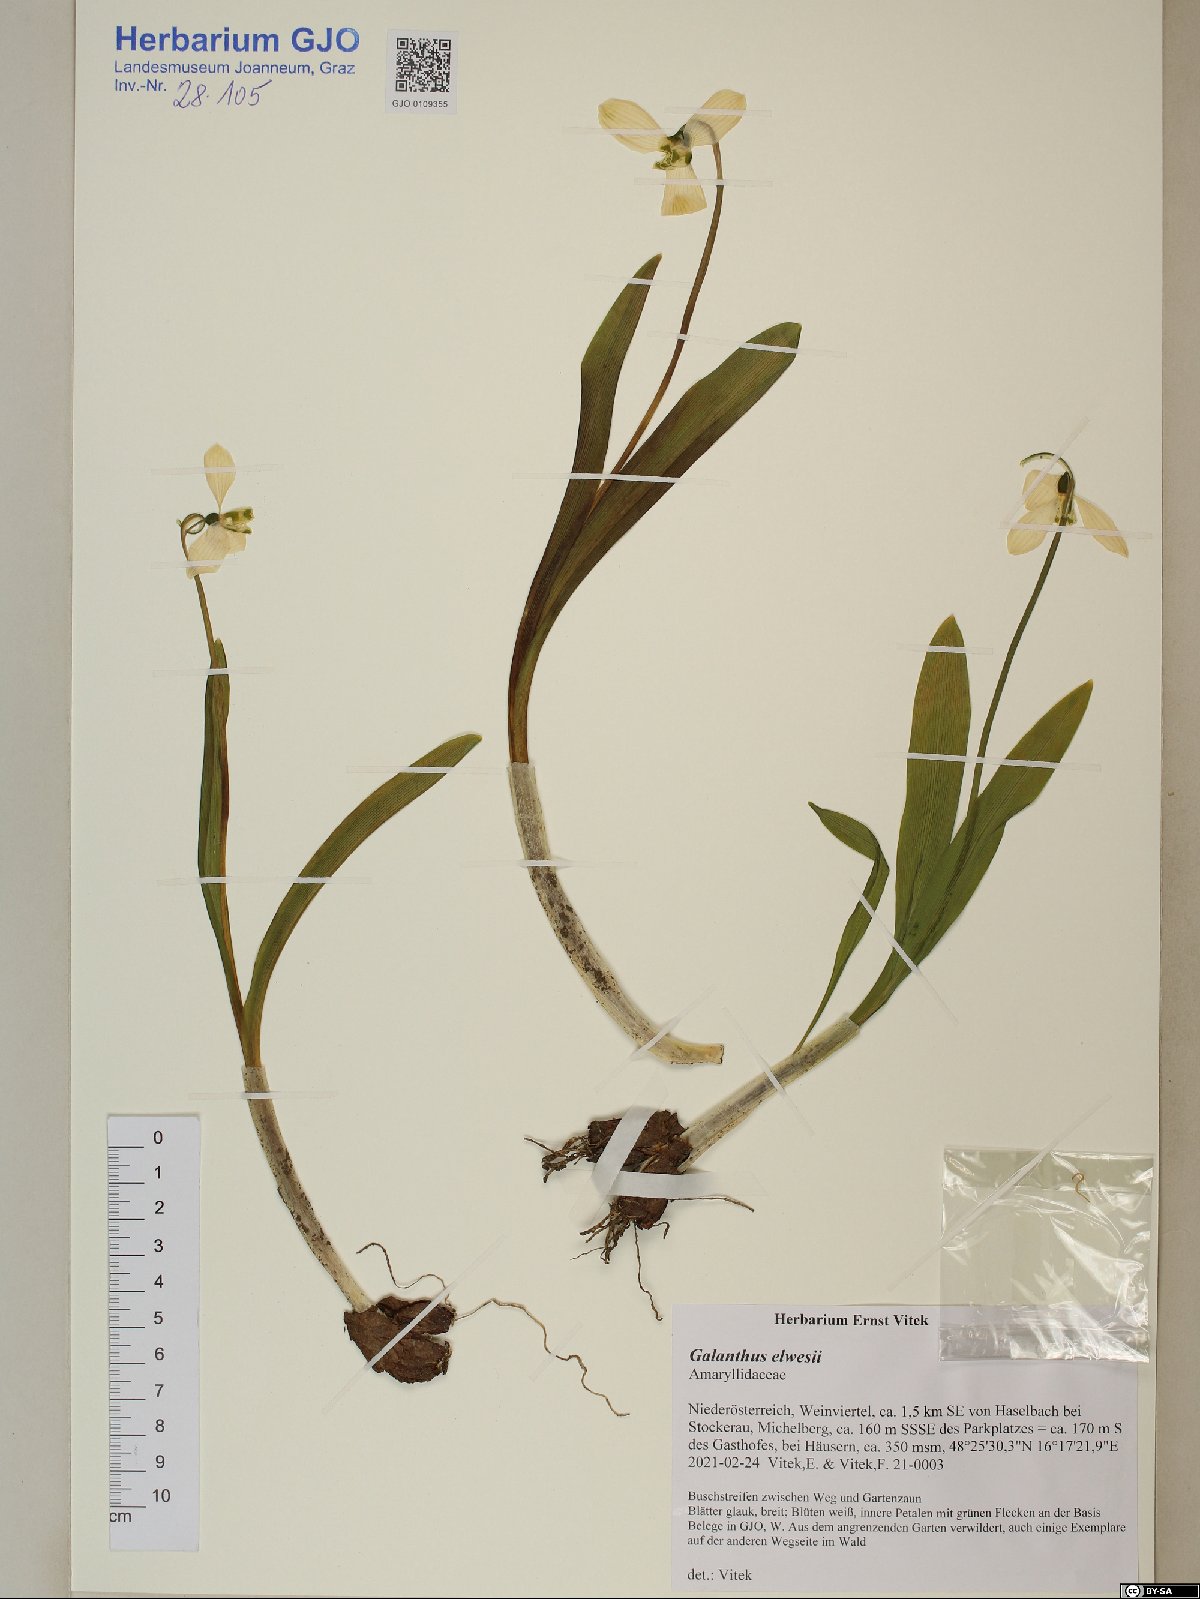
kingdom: Plantae
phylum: Tracheophyta
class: Liliopsida
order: Asparagales
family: Amaryllidaceae
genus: Galanthus
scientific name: Galanthus elwesii
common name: Greater snowdrop
